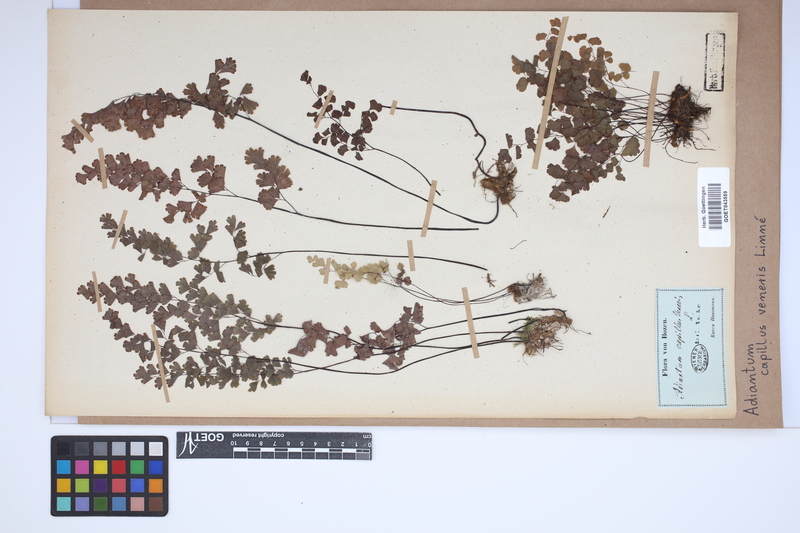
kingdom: Plantae
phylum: Tracheophyta
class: Polypodiopsida
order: Polypodiales
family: Pteridaceae
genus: Adiantum
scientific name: Adiantum capillus-veneris
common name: Maidenhair fern
